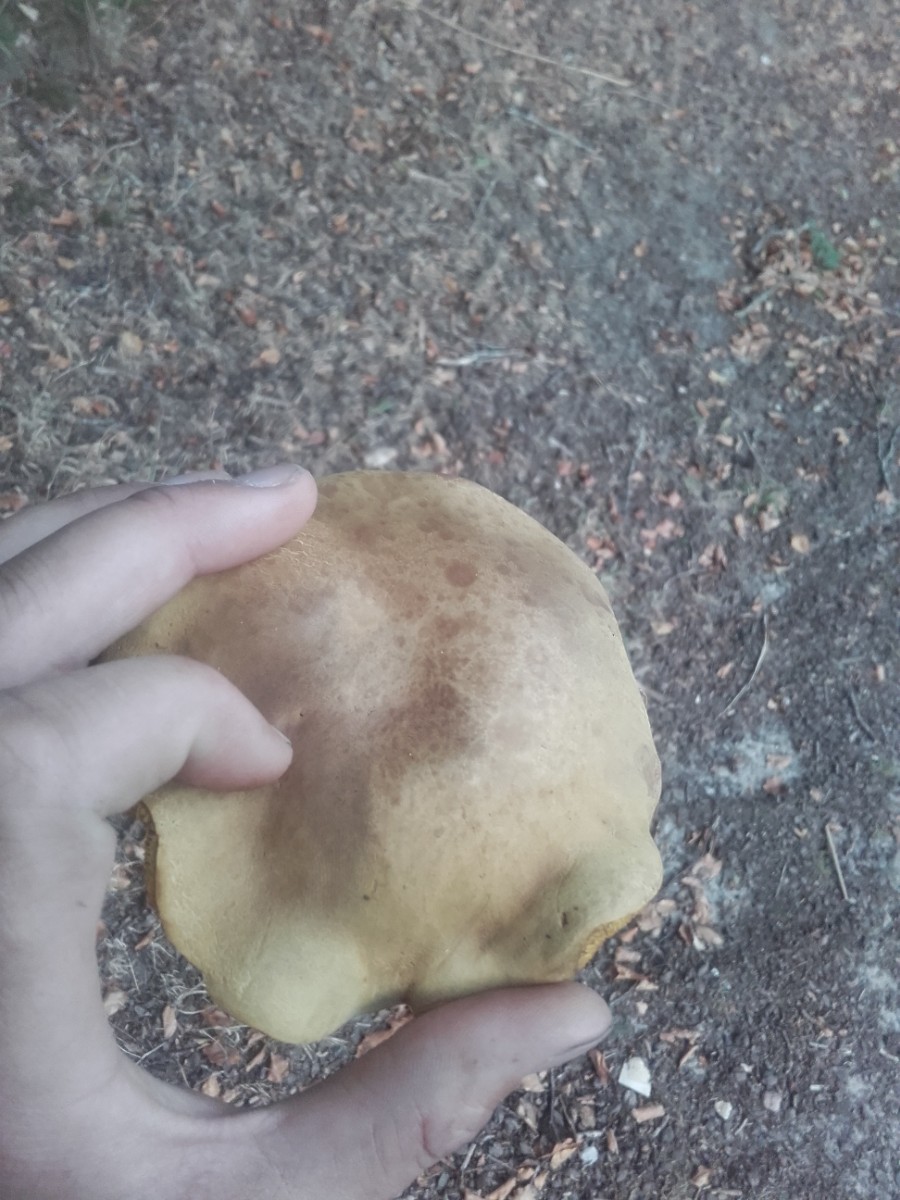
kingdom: Fungi
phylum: Basidiomycota
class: Agaricomycetes
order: Boletales
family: Boletaceae
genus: Xerocomus
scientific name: Xerocomus
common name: filtrørhat
